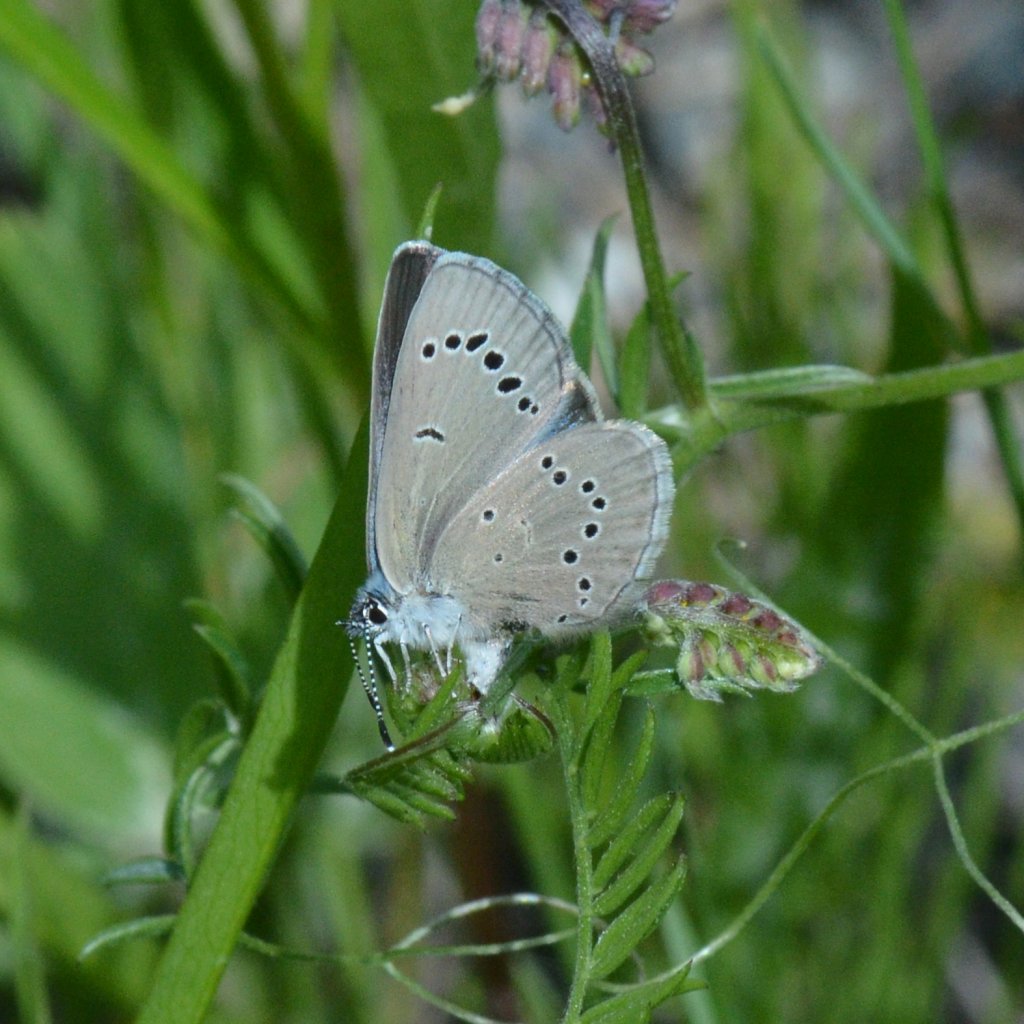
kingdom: Animalia
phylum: Arthropoda
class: Insecta
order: Lepidoptera
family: Lycaenidae
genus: Glaucopsyche
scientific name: Glaucopsyche lygdamus
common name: Silvery Blue
